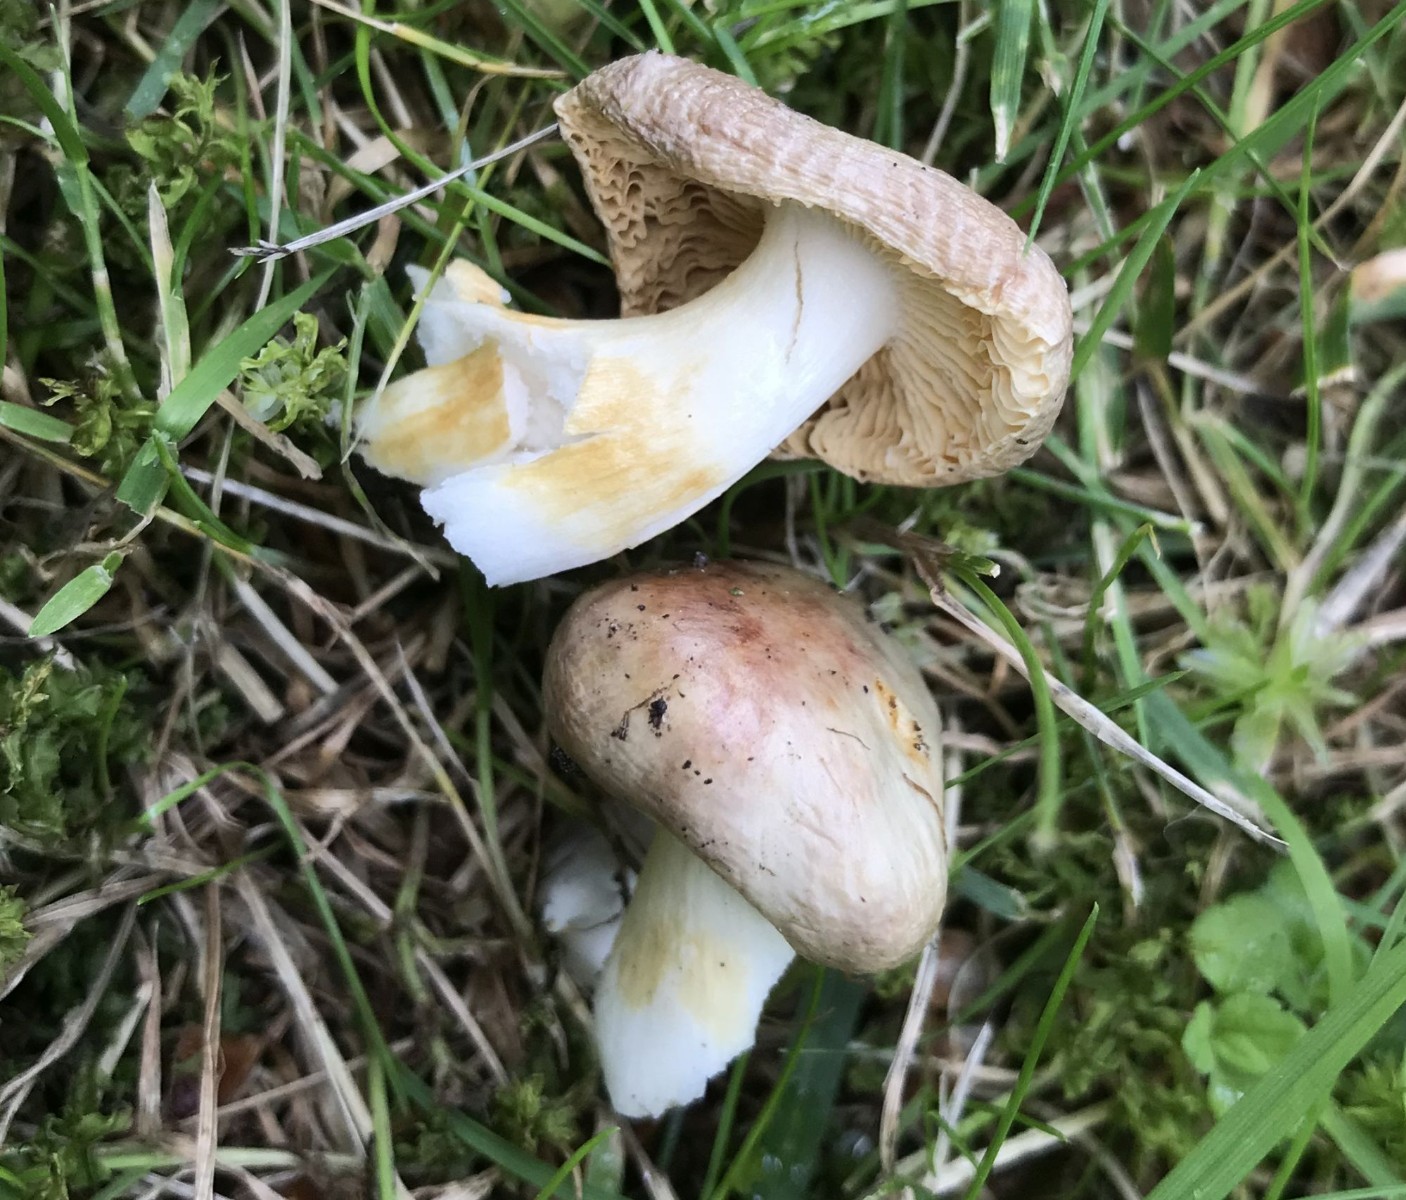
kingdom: Fungi
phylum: Basidiomycota
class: Agaricomycetes
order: Russulales
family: Russulaceae
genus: Russula
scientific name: Russula odorata
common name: duft-skørhat
